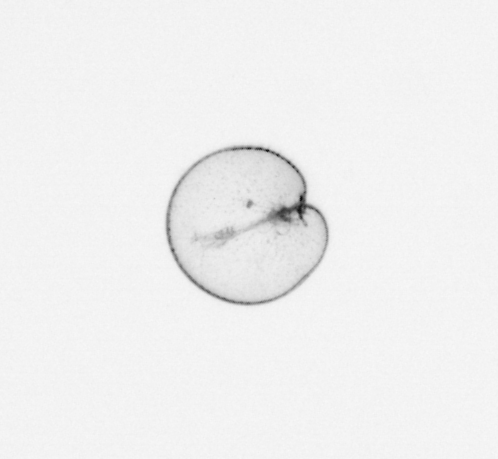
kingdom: Chromista
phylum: Myzozoa
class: Dinophyceae
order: Noctilucales
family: Noctilucaceae
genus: Noctiluca
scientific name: Noctiluca scintillans
